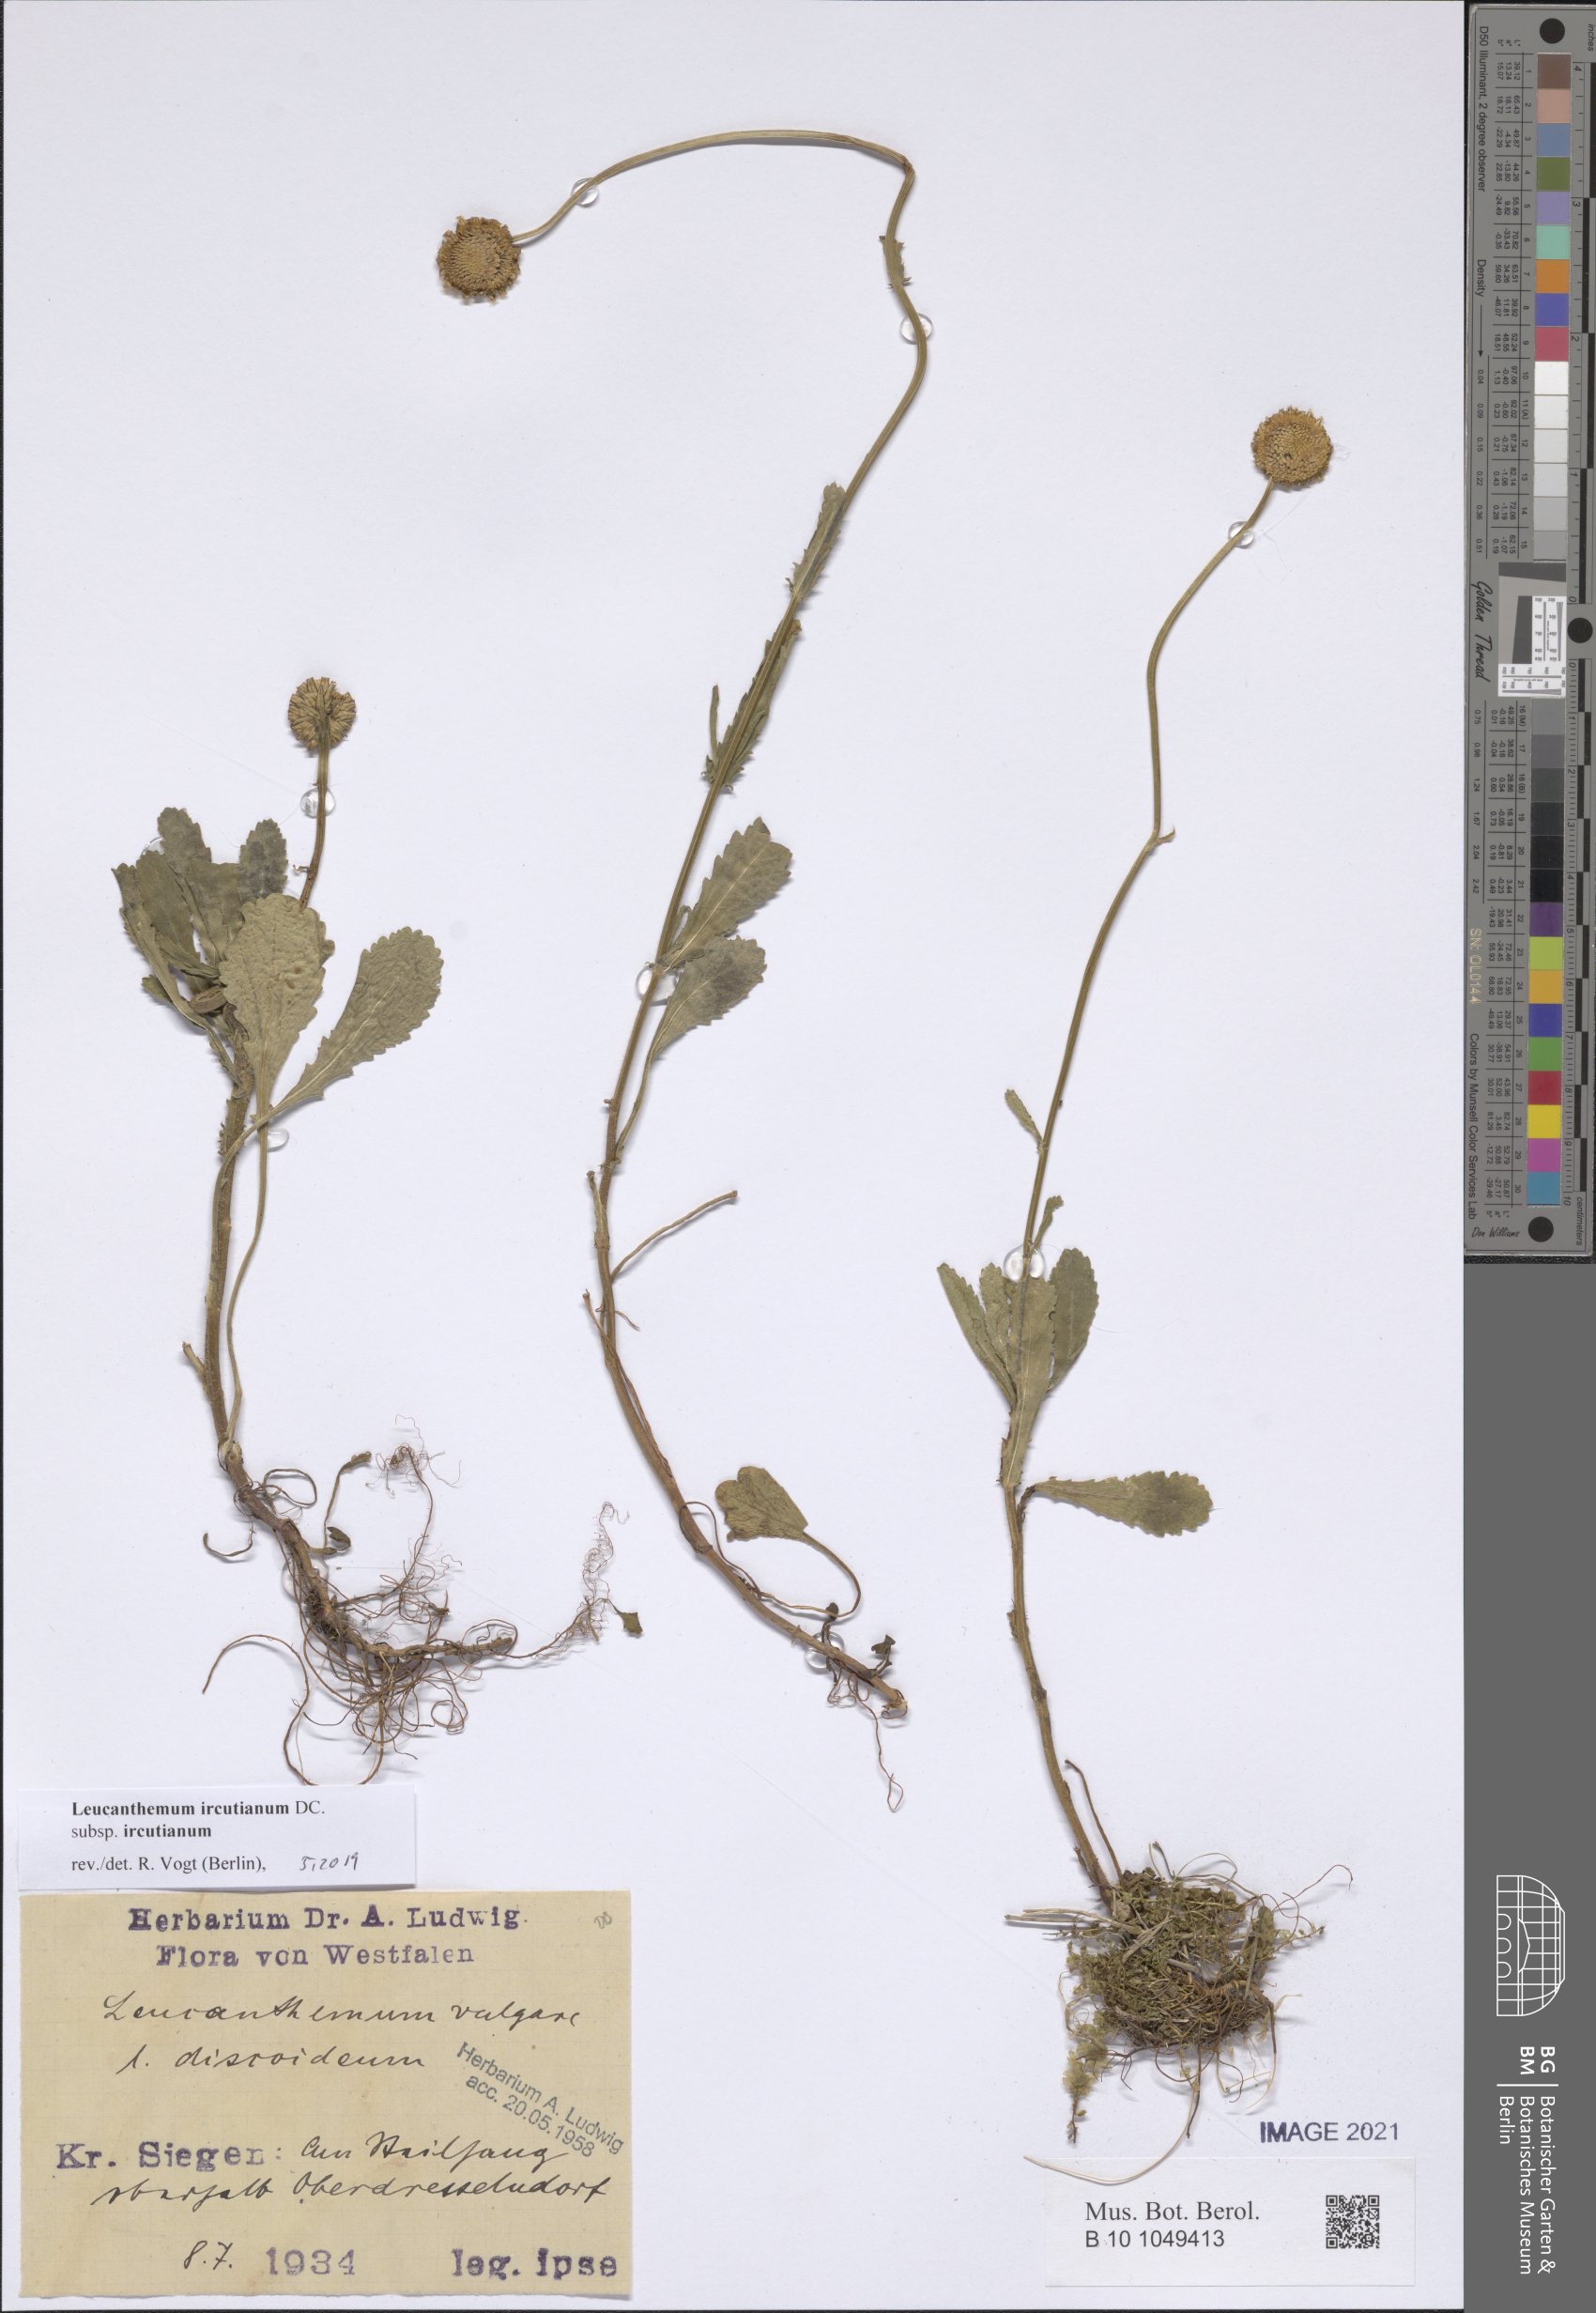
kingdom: Plantae
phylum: Tracheophyta
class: Magnoliopsida
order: Asterales
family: Asteraceae
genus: Leucanthemum
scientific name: Leucanthemum ircutianum
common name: Daisy
